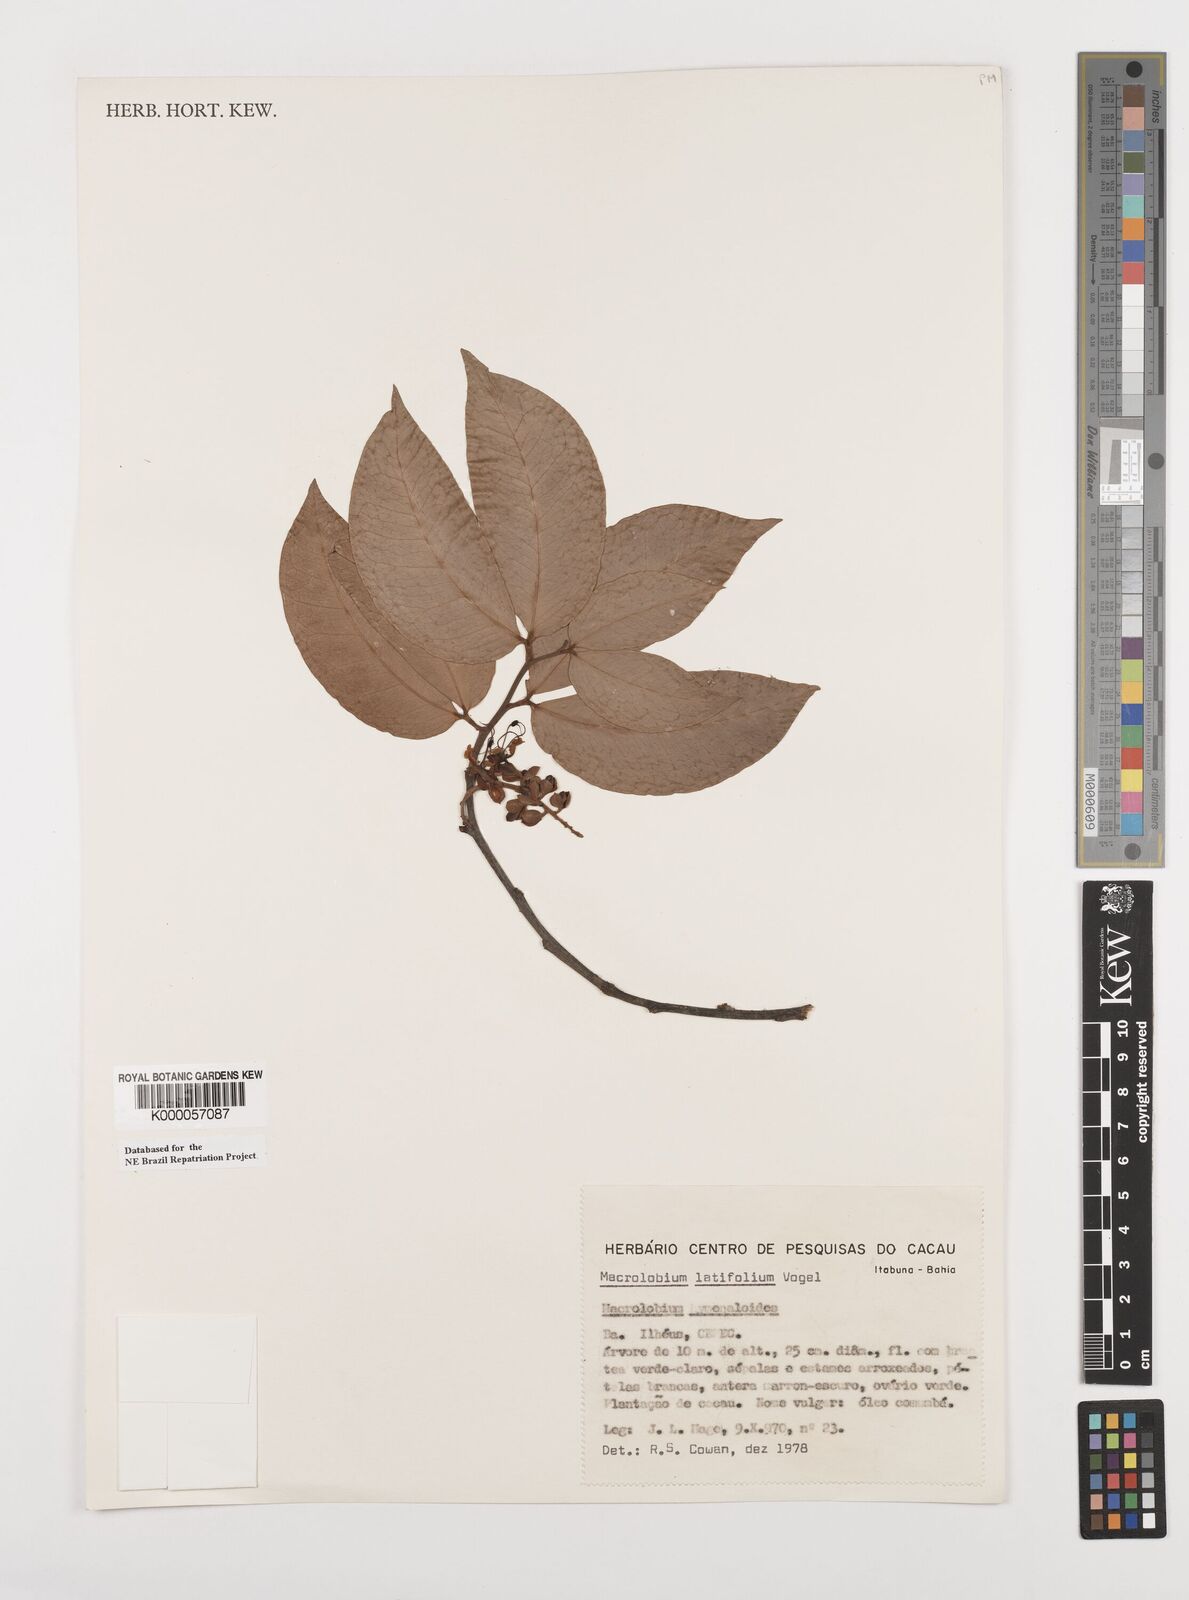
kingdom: Plantae
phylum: Tracheophyta
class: Magnoliopsida
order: Fabales
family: Fabaceae
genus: Macrolobium
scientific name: Macrolobium latifolium
